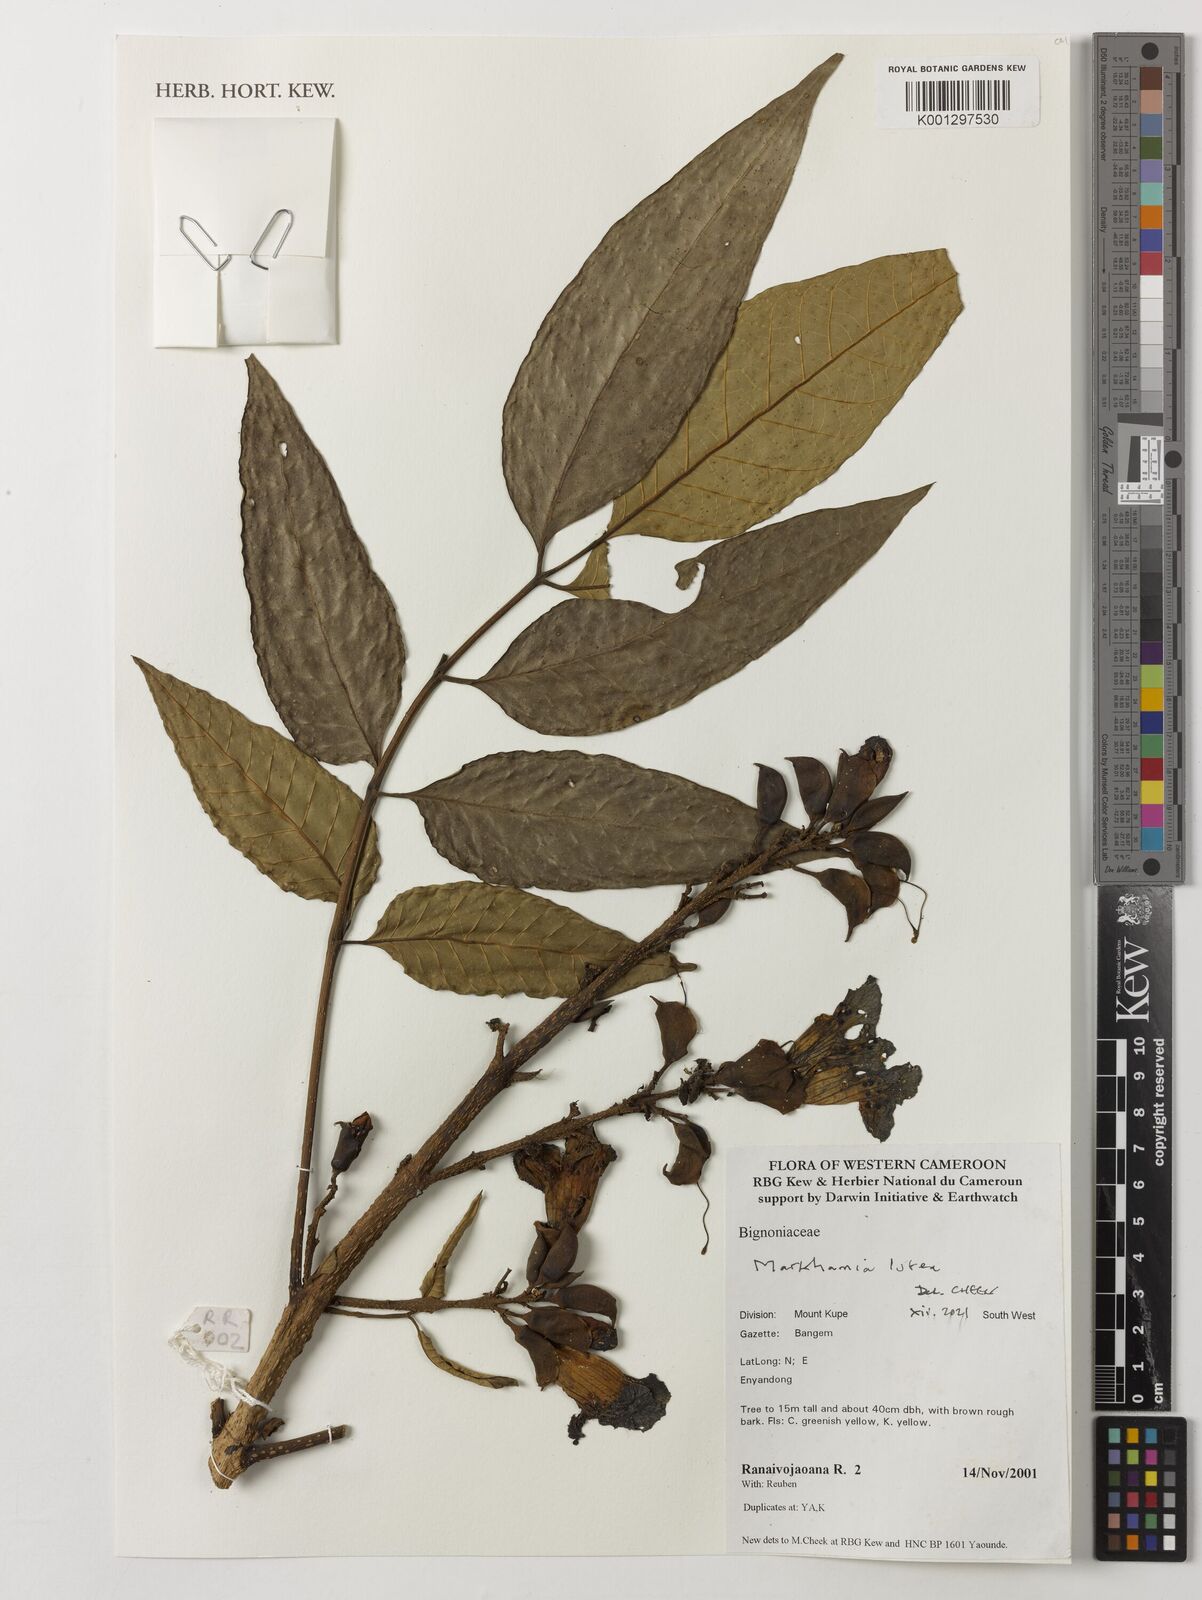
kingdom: Plantae
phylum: Tracheophyta
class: Magnoliopsida
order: Lamiales
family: Bignoniaceae
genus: Markhamia
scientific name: Markhamia lutea
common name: Siala
